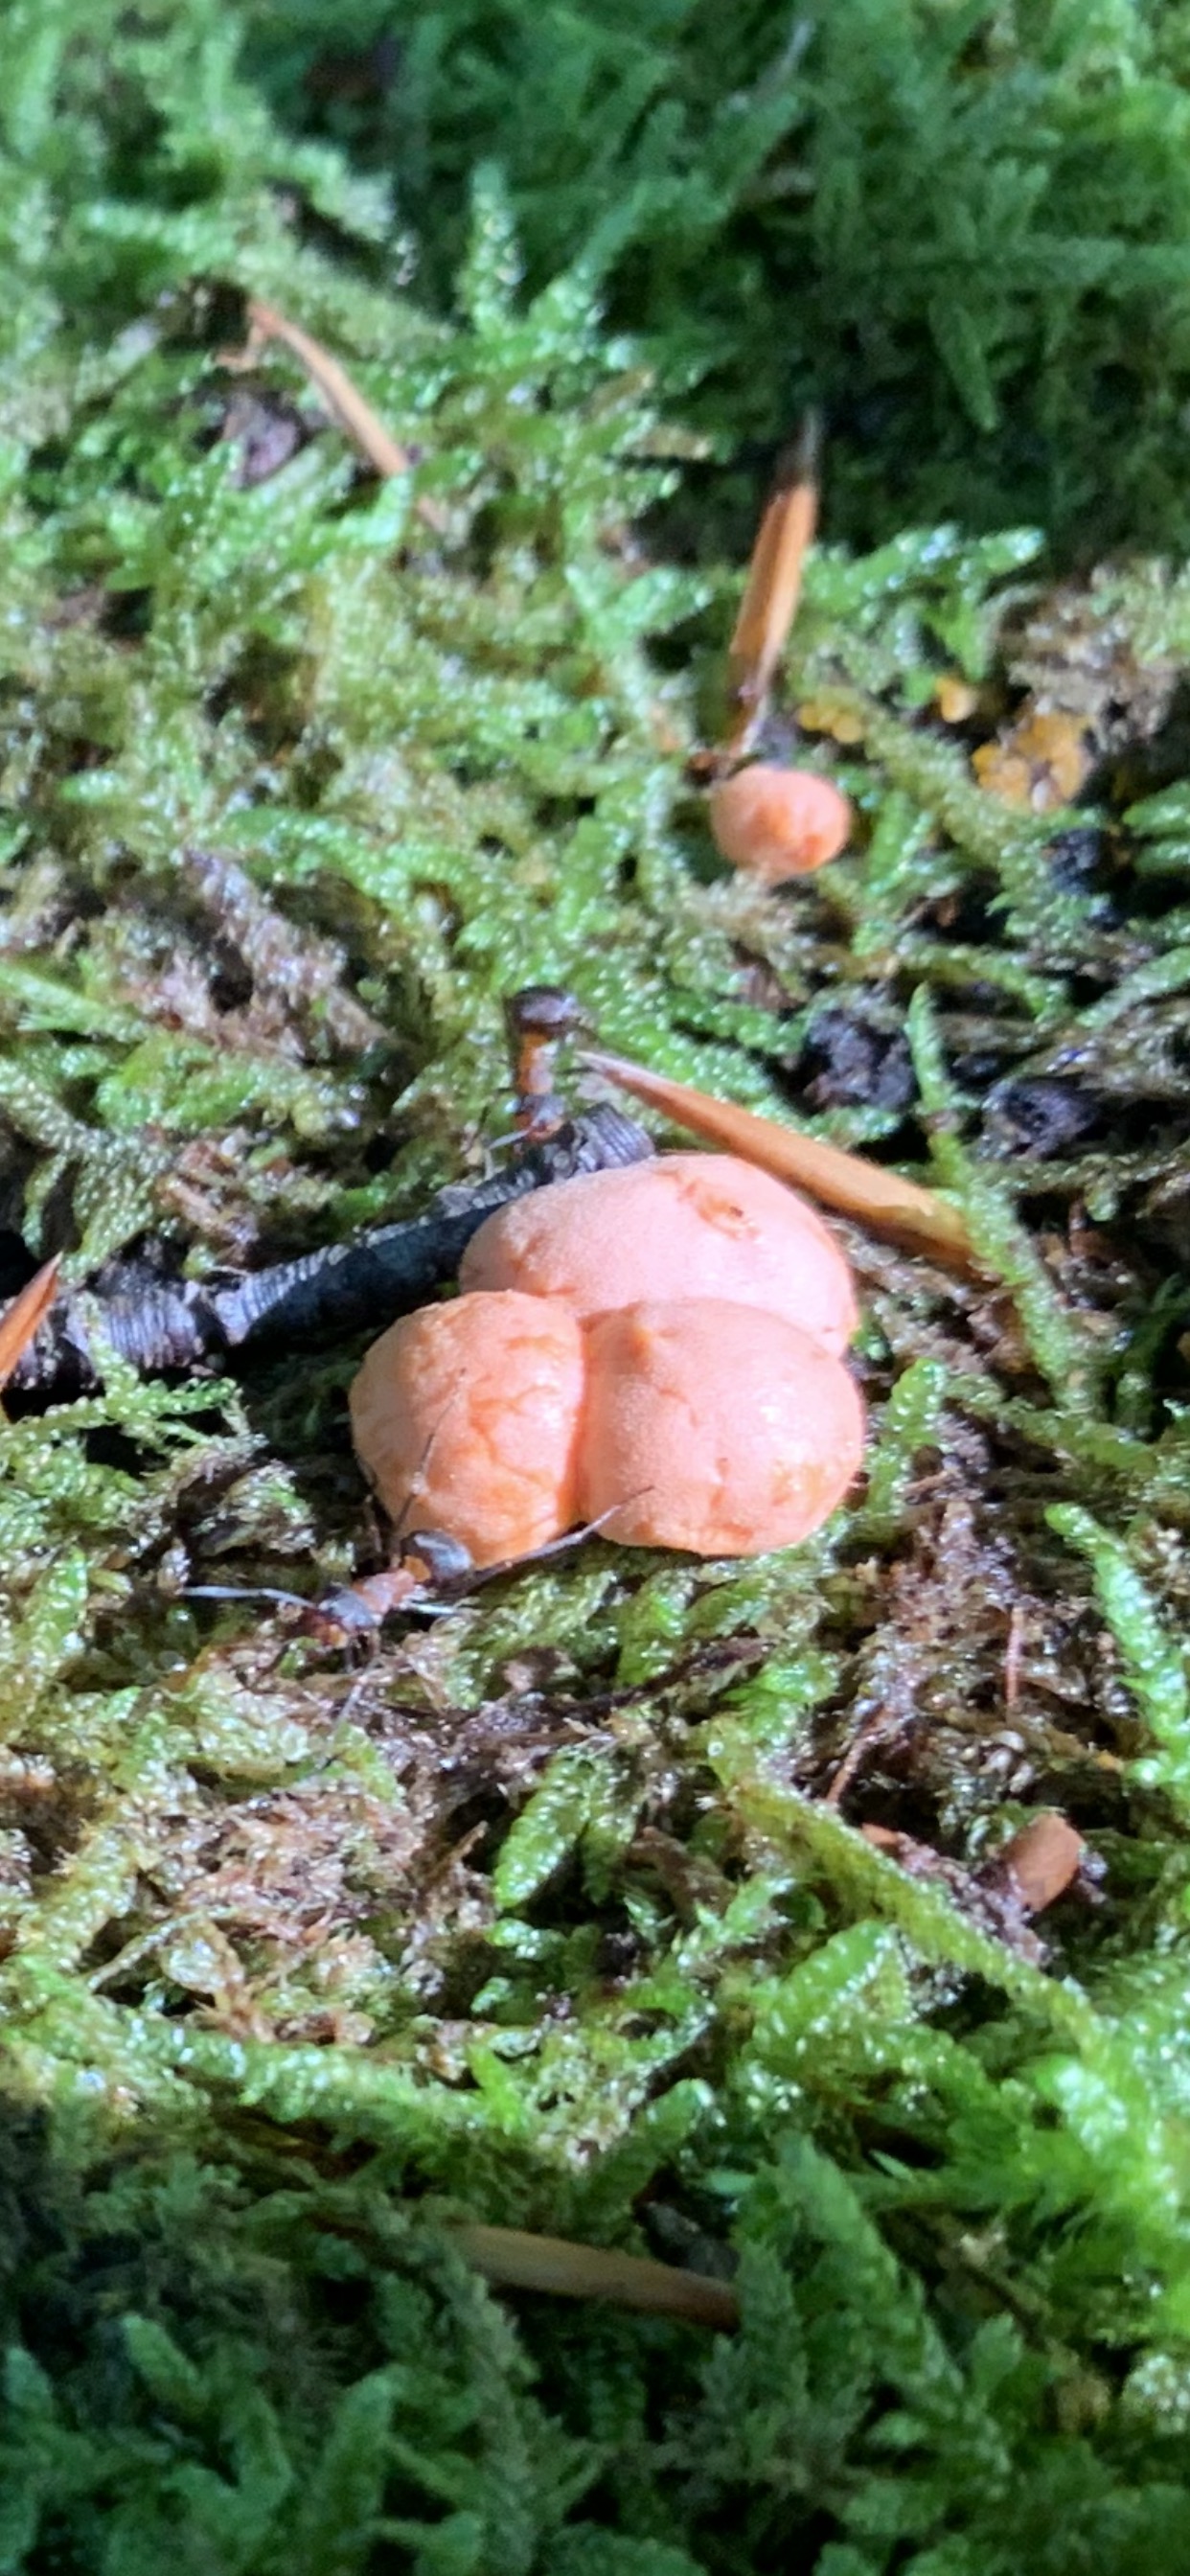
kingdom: Protozoa
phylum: Mycetozoa
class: Myxomycetes
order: Cribrariales
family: Tubiferaceae
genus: Lycogala
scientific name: Lycogala epidendrum
